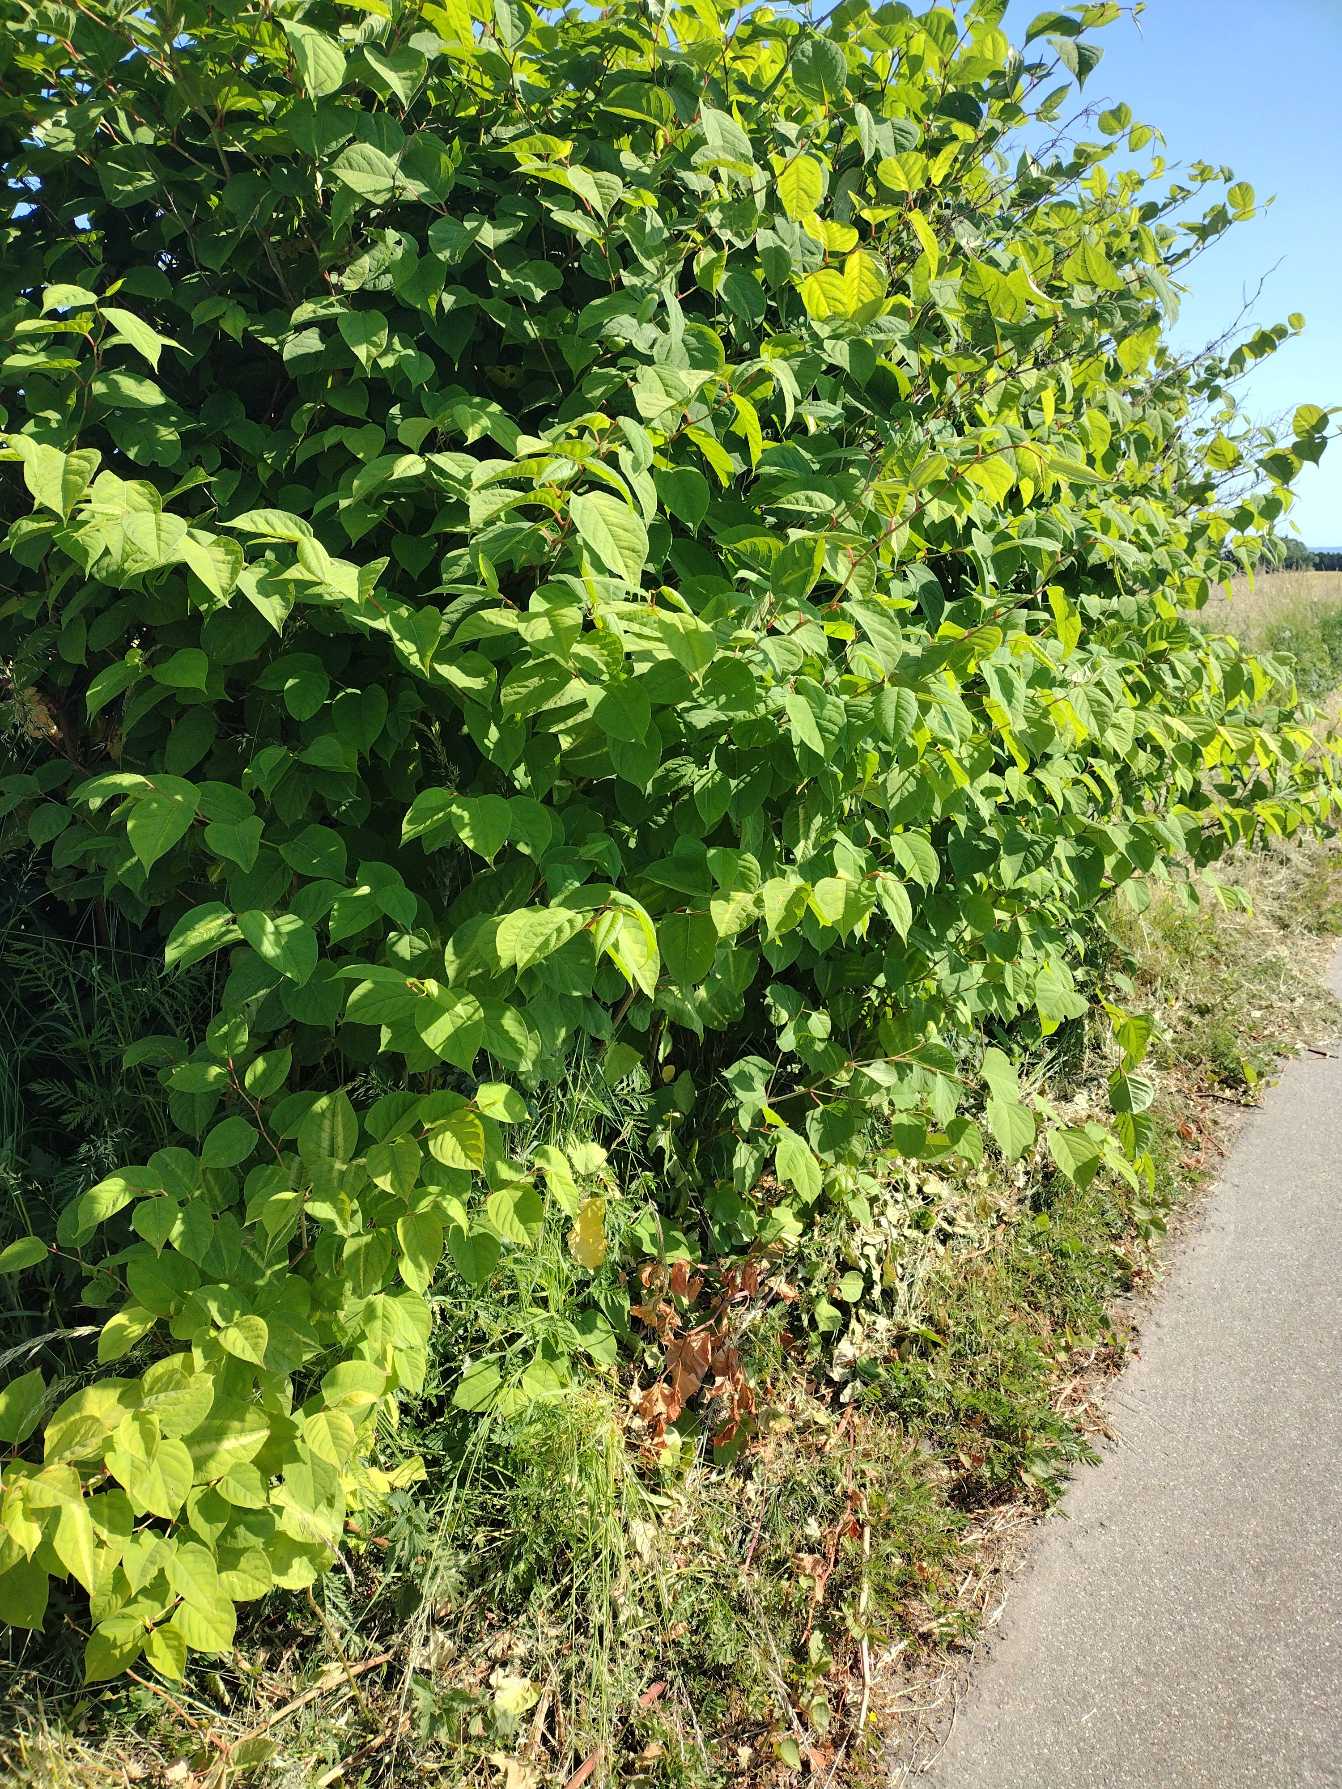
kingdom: Plantae
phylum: Tracheophyta
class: Magnoliopsida
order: Caryophyllales
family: Polygonaceae
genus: Reynoutria
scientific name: Reynoutria japonica
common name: Japan-pileurt
